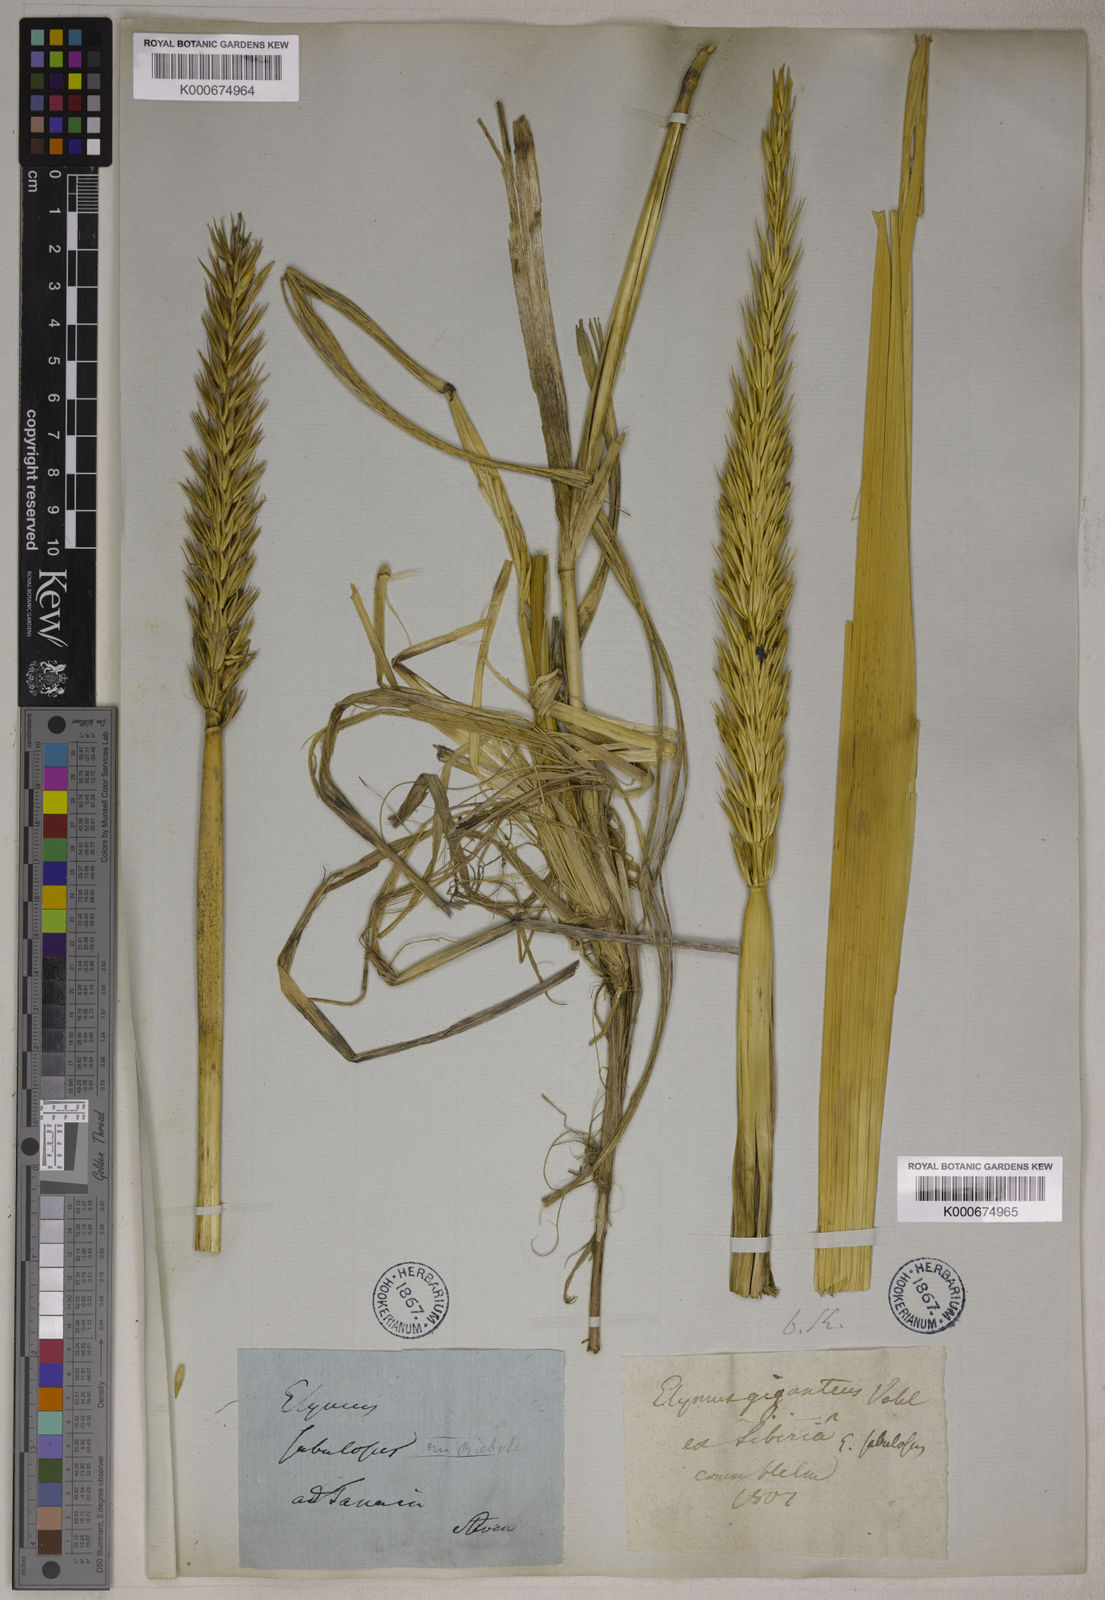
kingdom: Plantae
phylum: Tracheophyta
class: Liliopsida
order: Poales
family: Poaceae
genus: Leymus
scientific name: Leymus racemosus
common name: Mammoth wildrye
